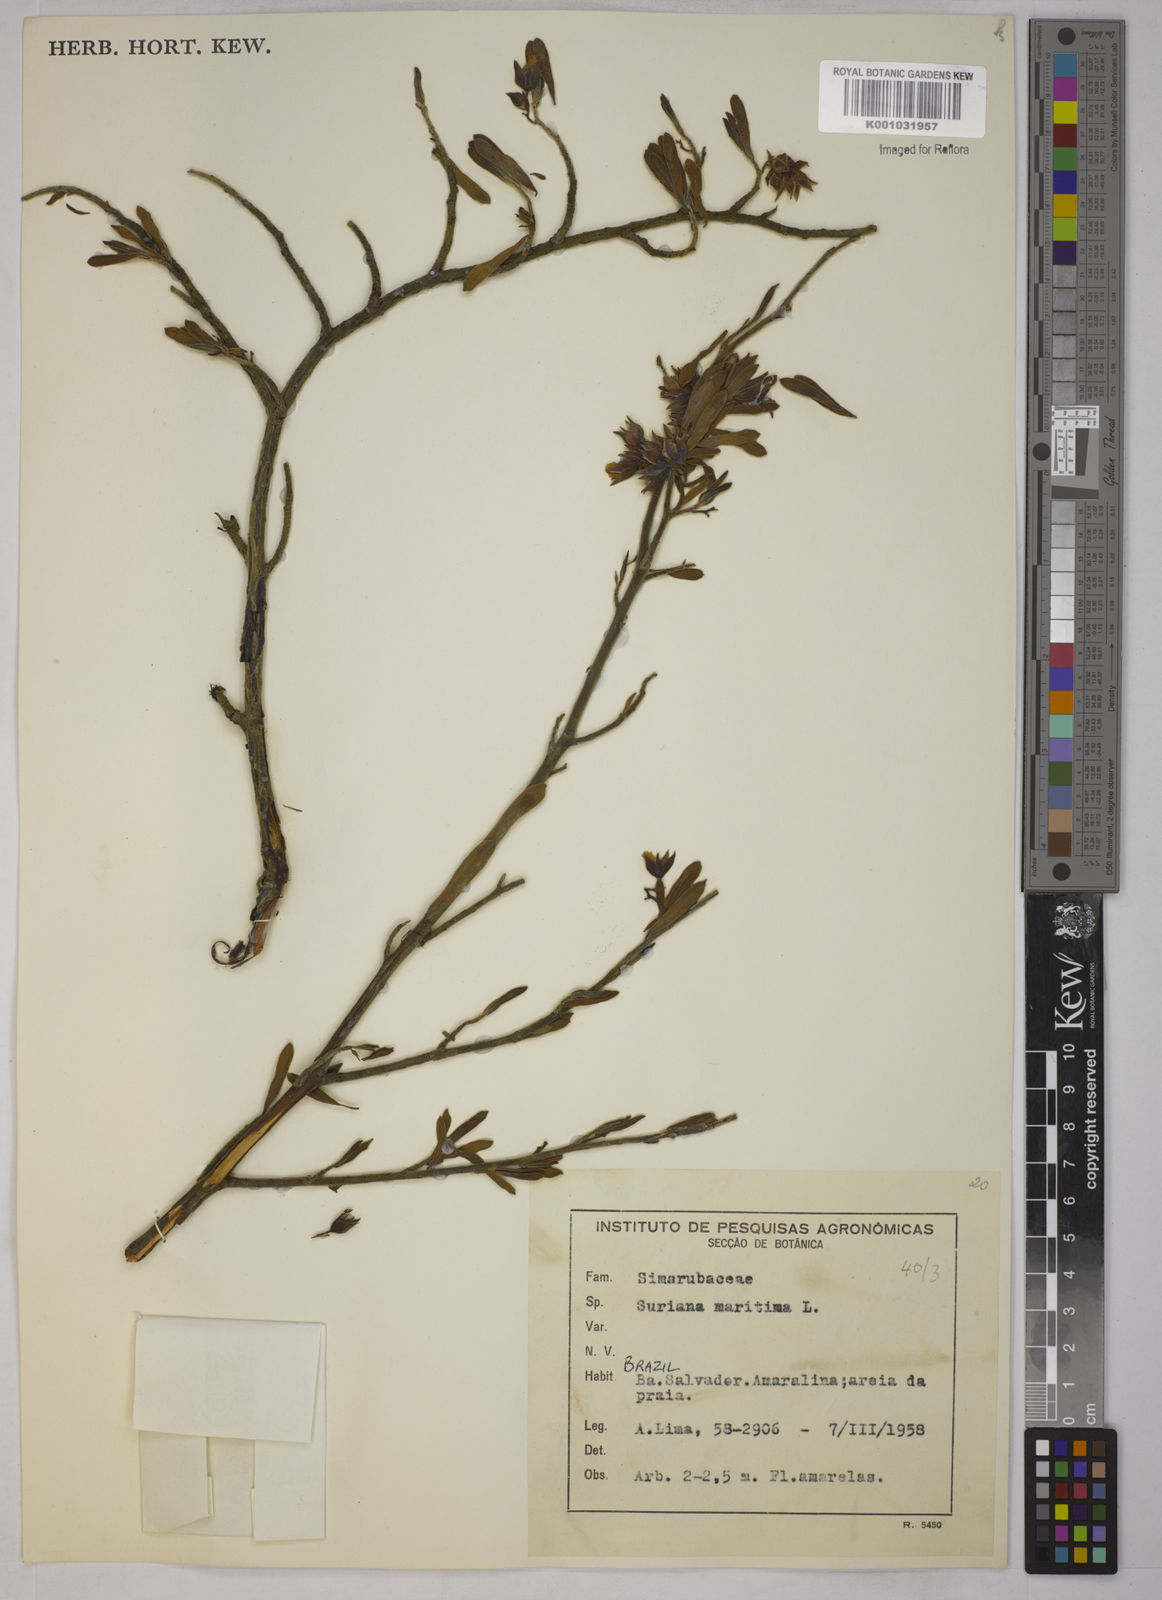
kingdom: Plantae
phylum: Tracheophyta
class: Magnoliopsida
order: Fabales
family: Surianaceae
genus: Suriana
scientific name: Suriana maritima
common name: Bay-cedar
